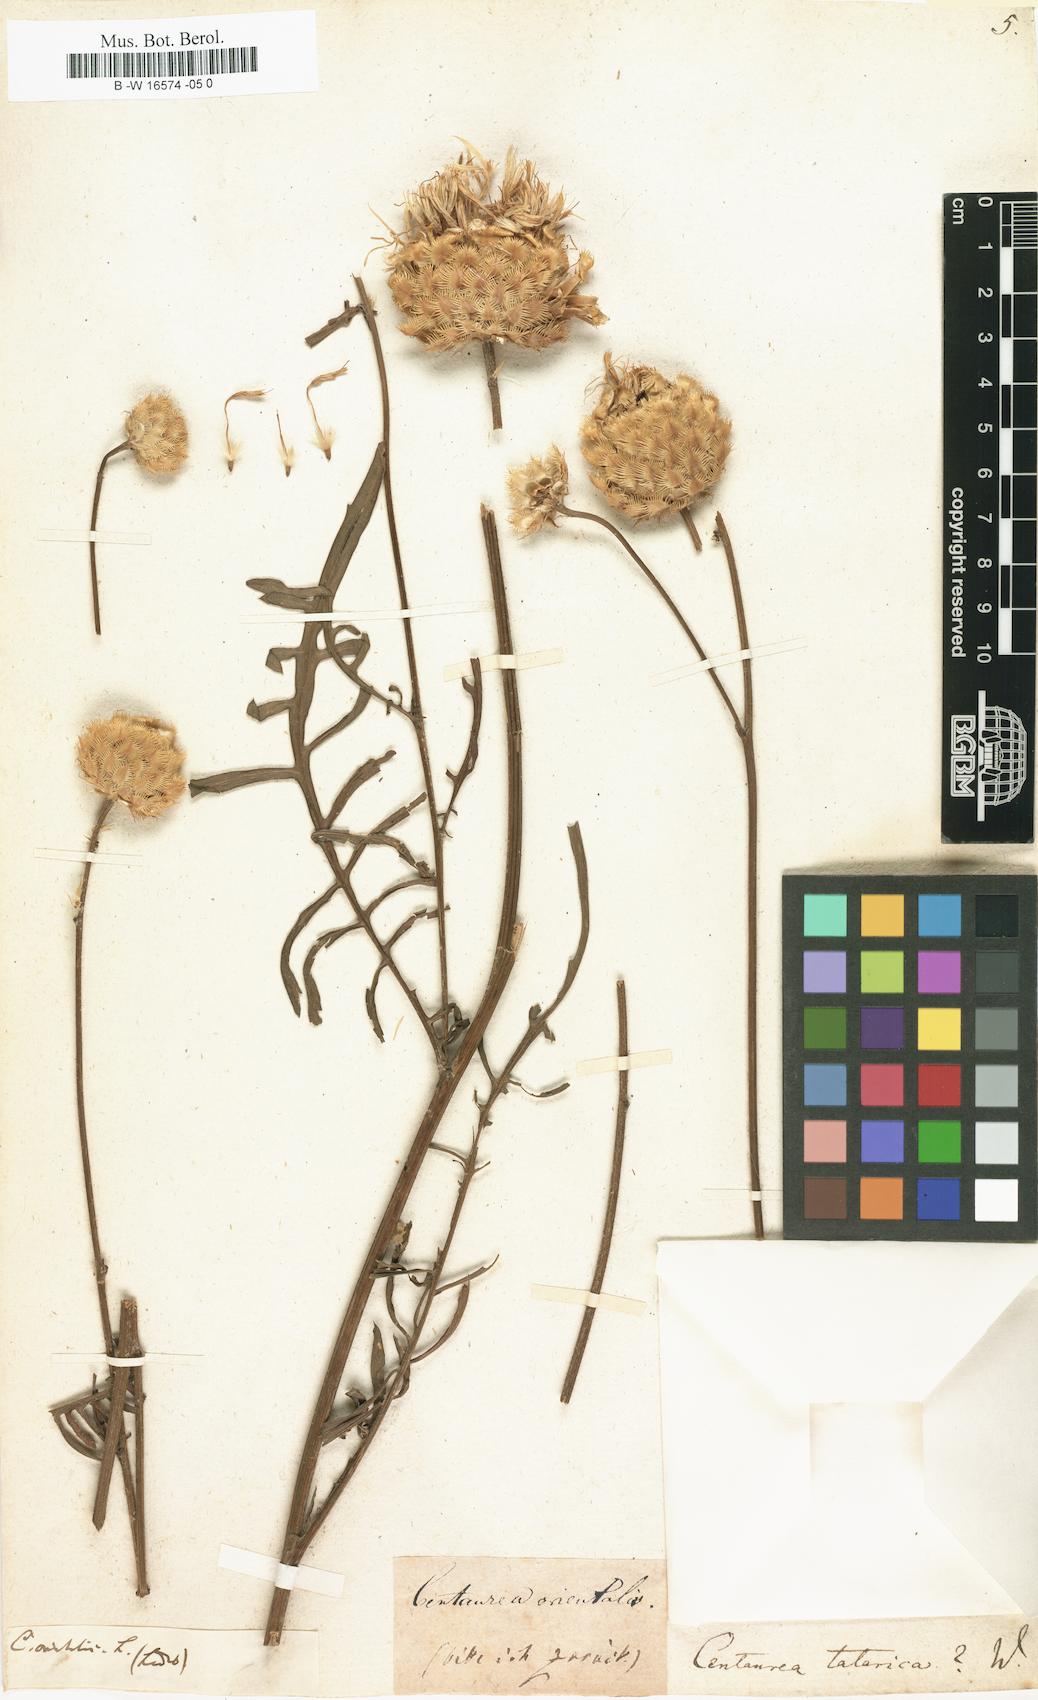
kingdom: Plantae
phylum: Tracheophyta
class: Magnoliopsida
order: Asterales
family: Asteraceae
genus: Centaurea
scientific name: Centaurea
